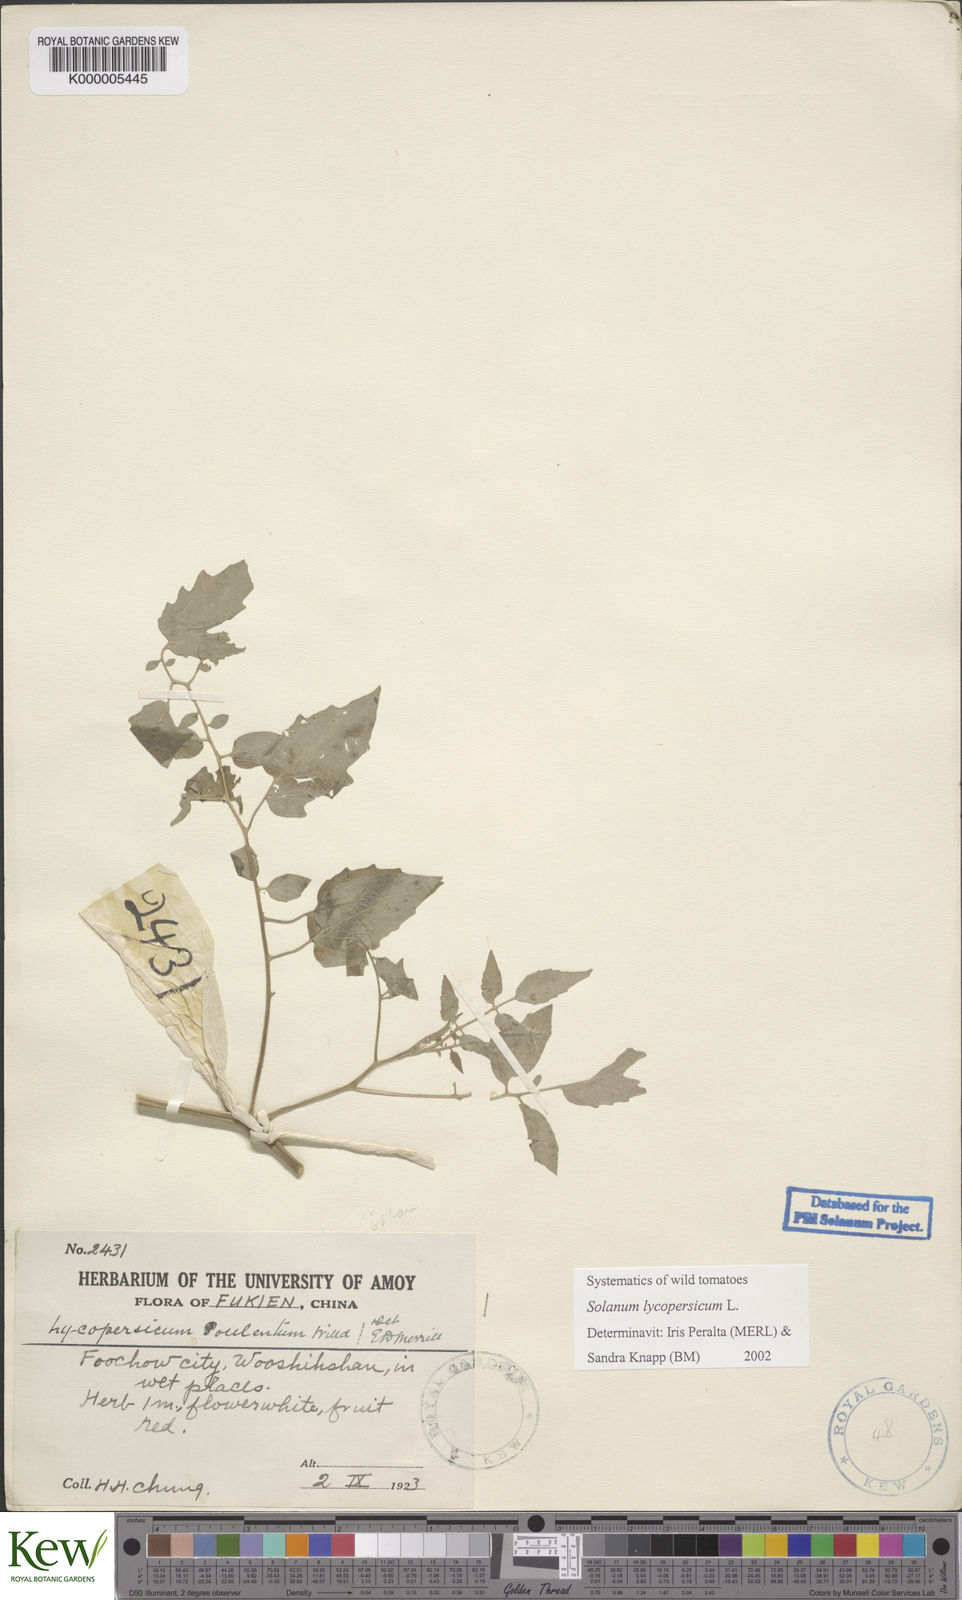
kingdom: Plantae
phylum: Tracheophyta
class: Magnoliopsida
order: Solanales
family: Solanaceae
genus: Solanum
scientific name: Solanum lycopersicum
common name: Garden tomato
